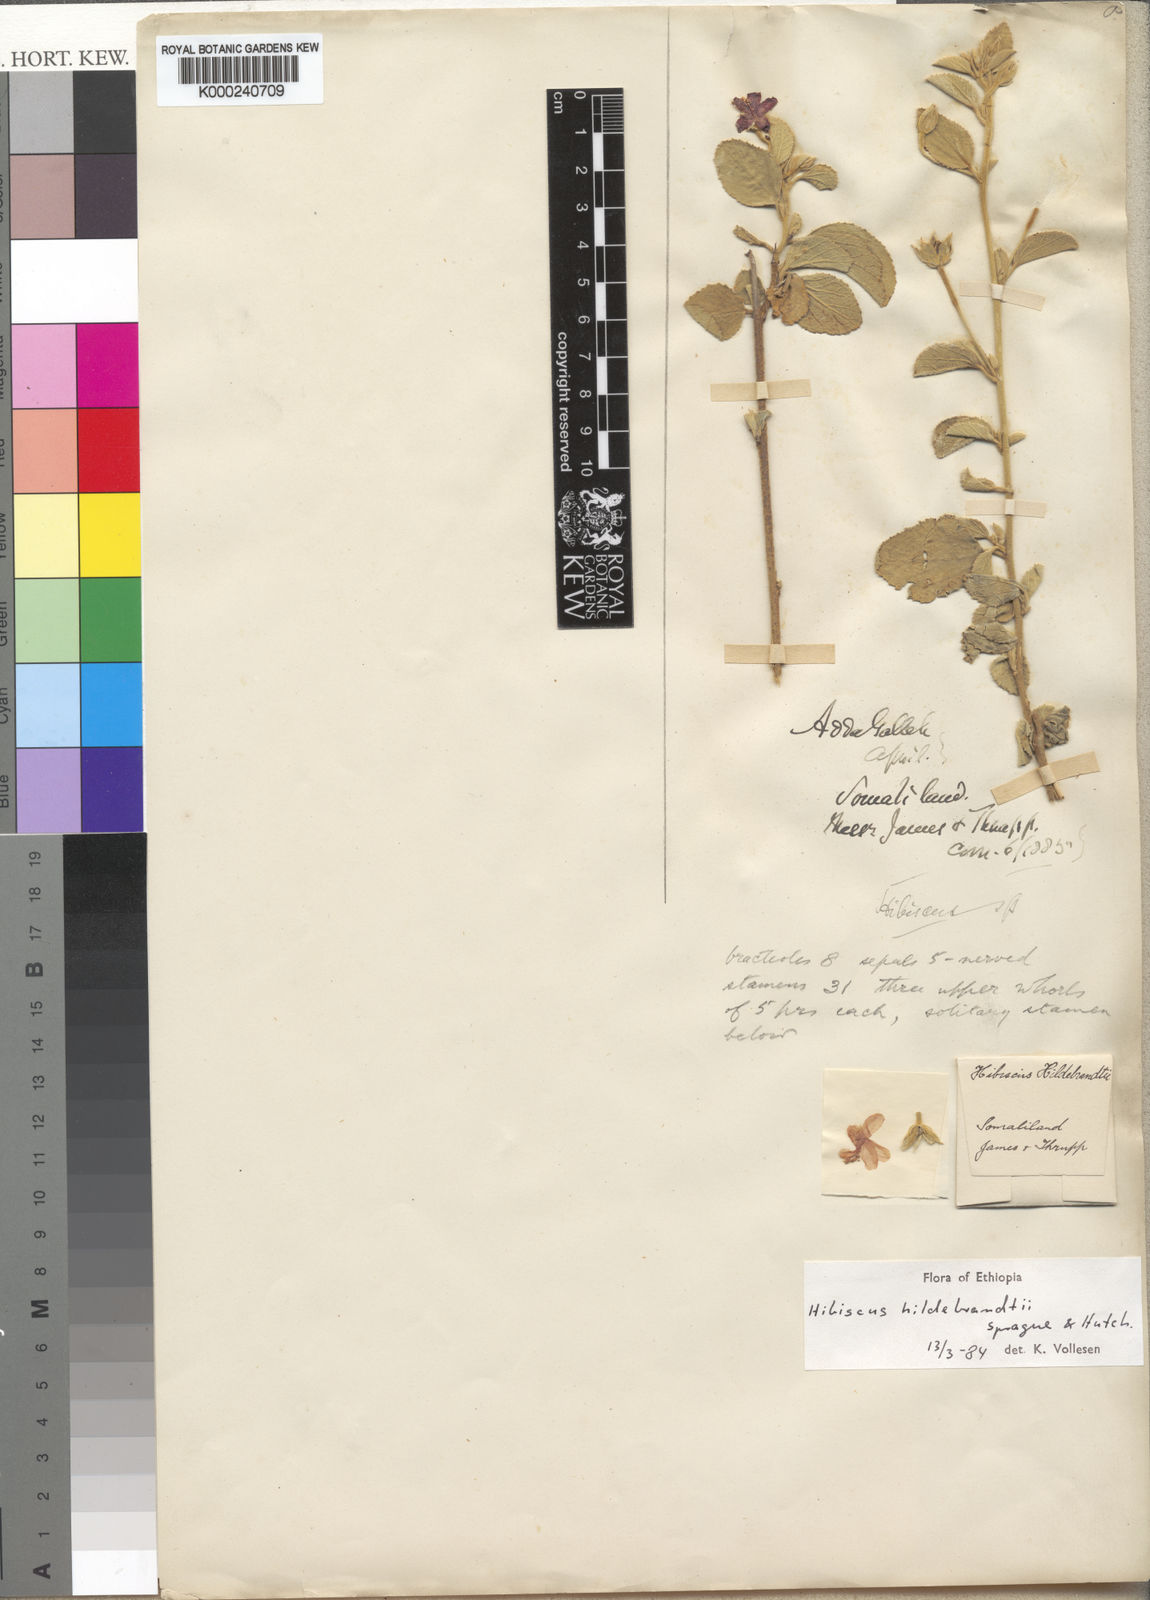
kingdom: Plantae
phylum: Tracheophyta
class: Magnoliopsida
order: Malvales
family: Malvaceae
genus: Hibiscus
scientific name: Hibiscus hildebrandtii
